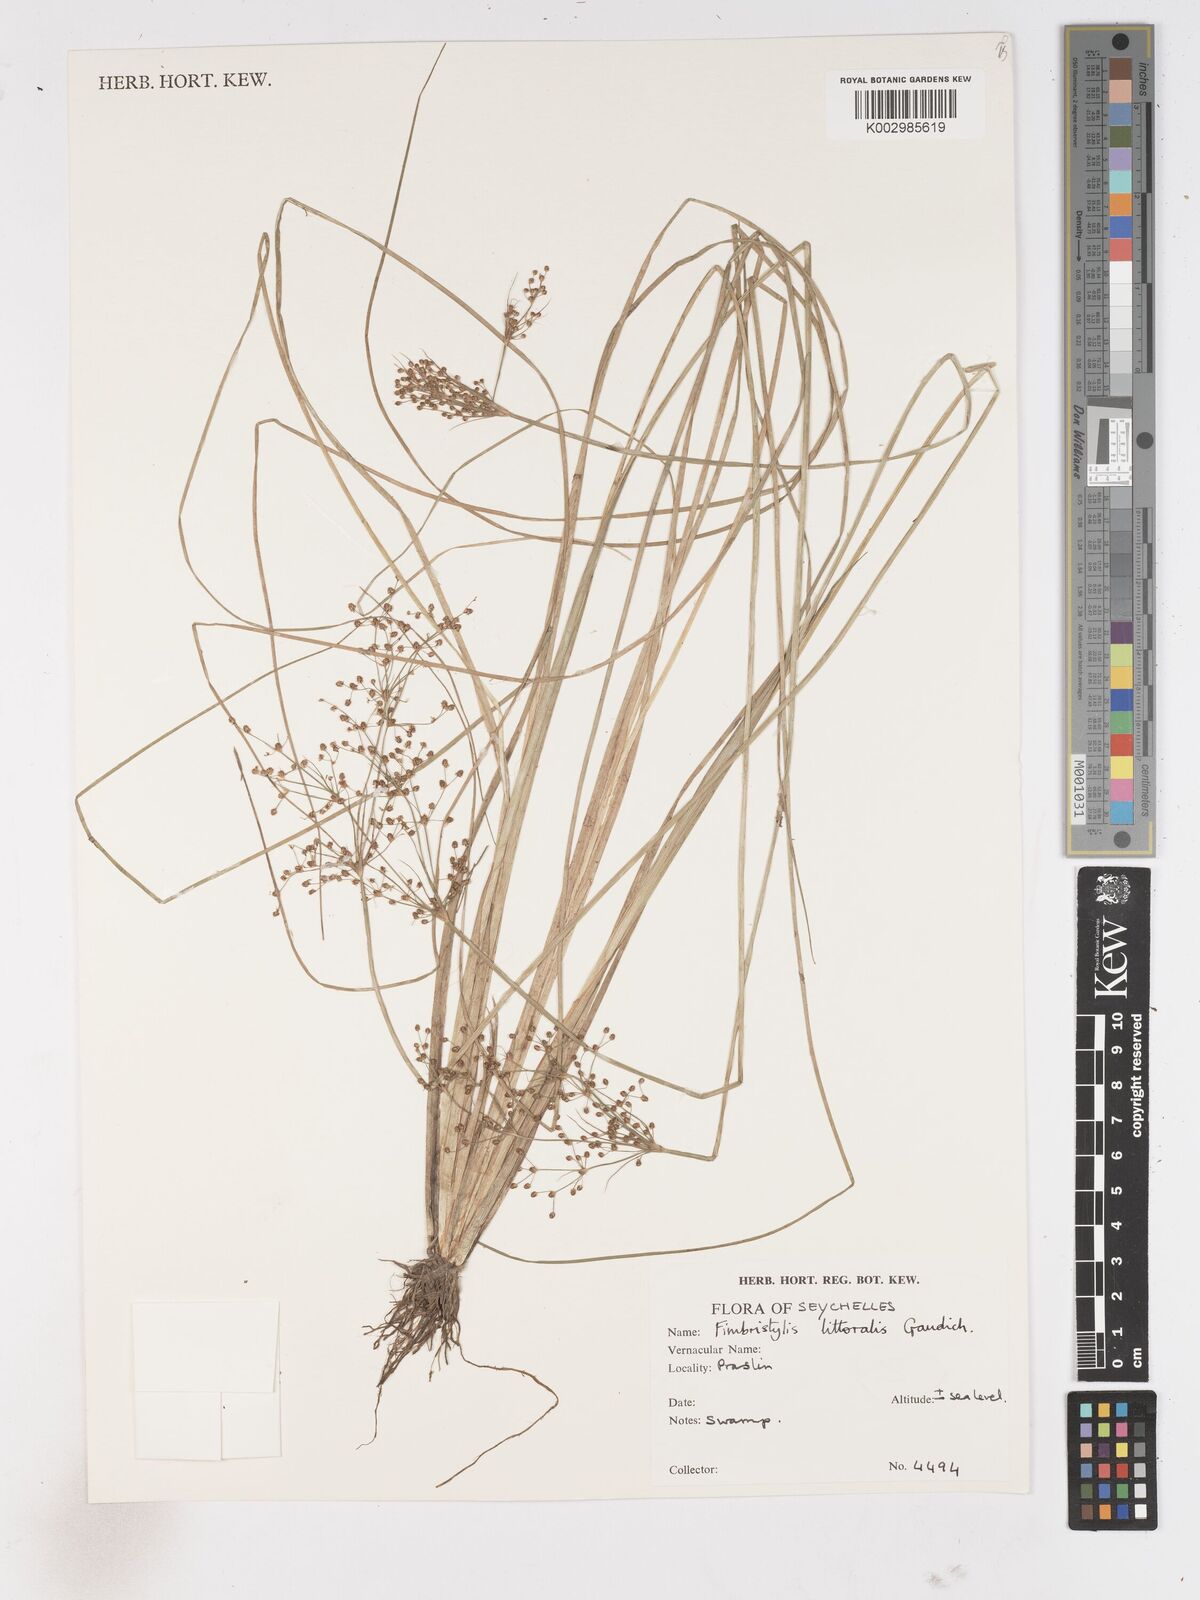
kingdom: Plantae
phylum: Tracheophyta
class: Liliopsida
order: Poales
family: Cyperaceae
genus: Fimbristylis
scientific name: Fimbristylis littoralis
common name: Fimbry
